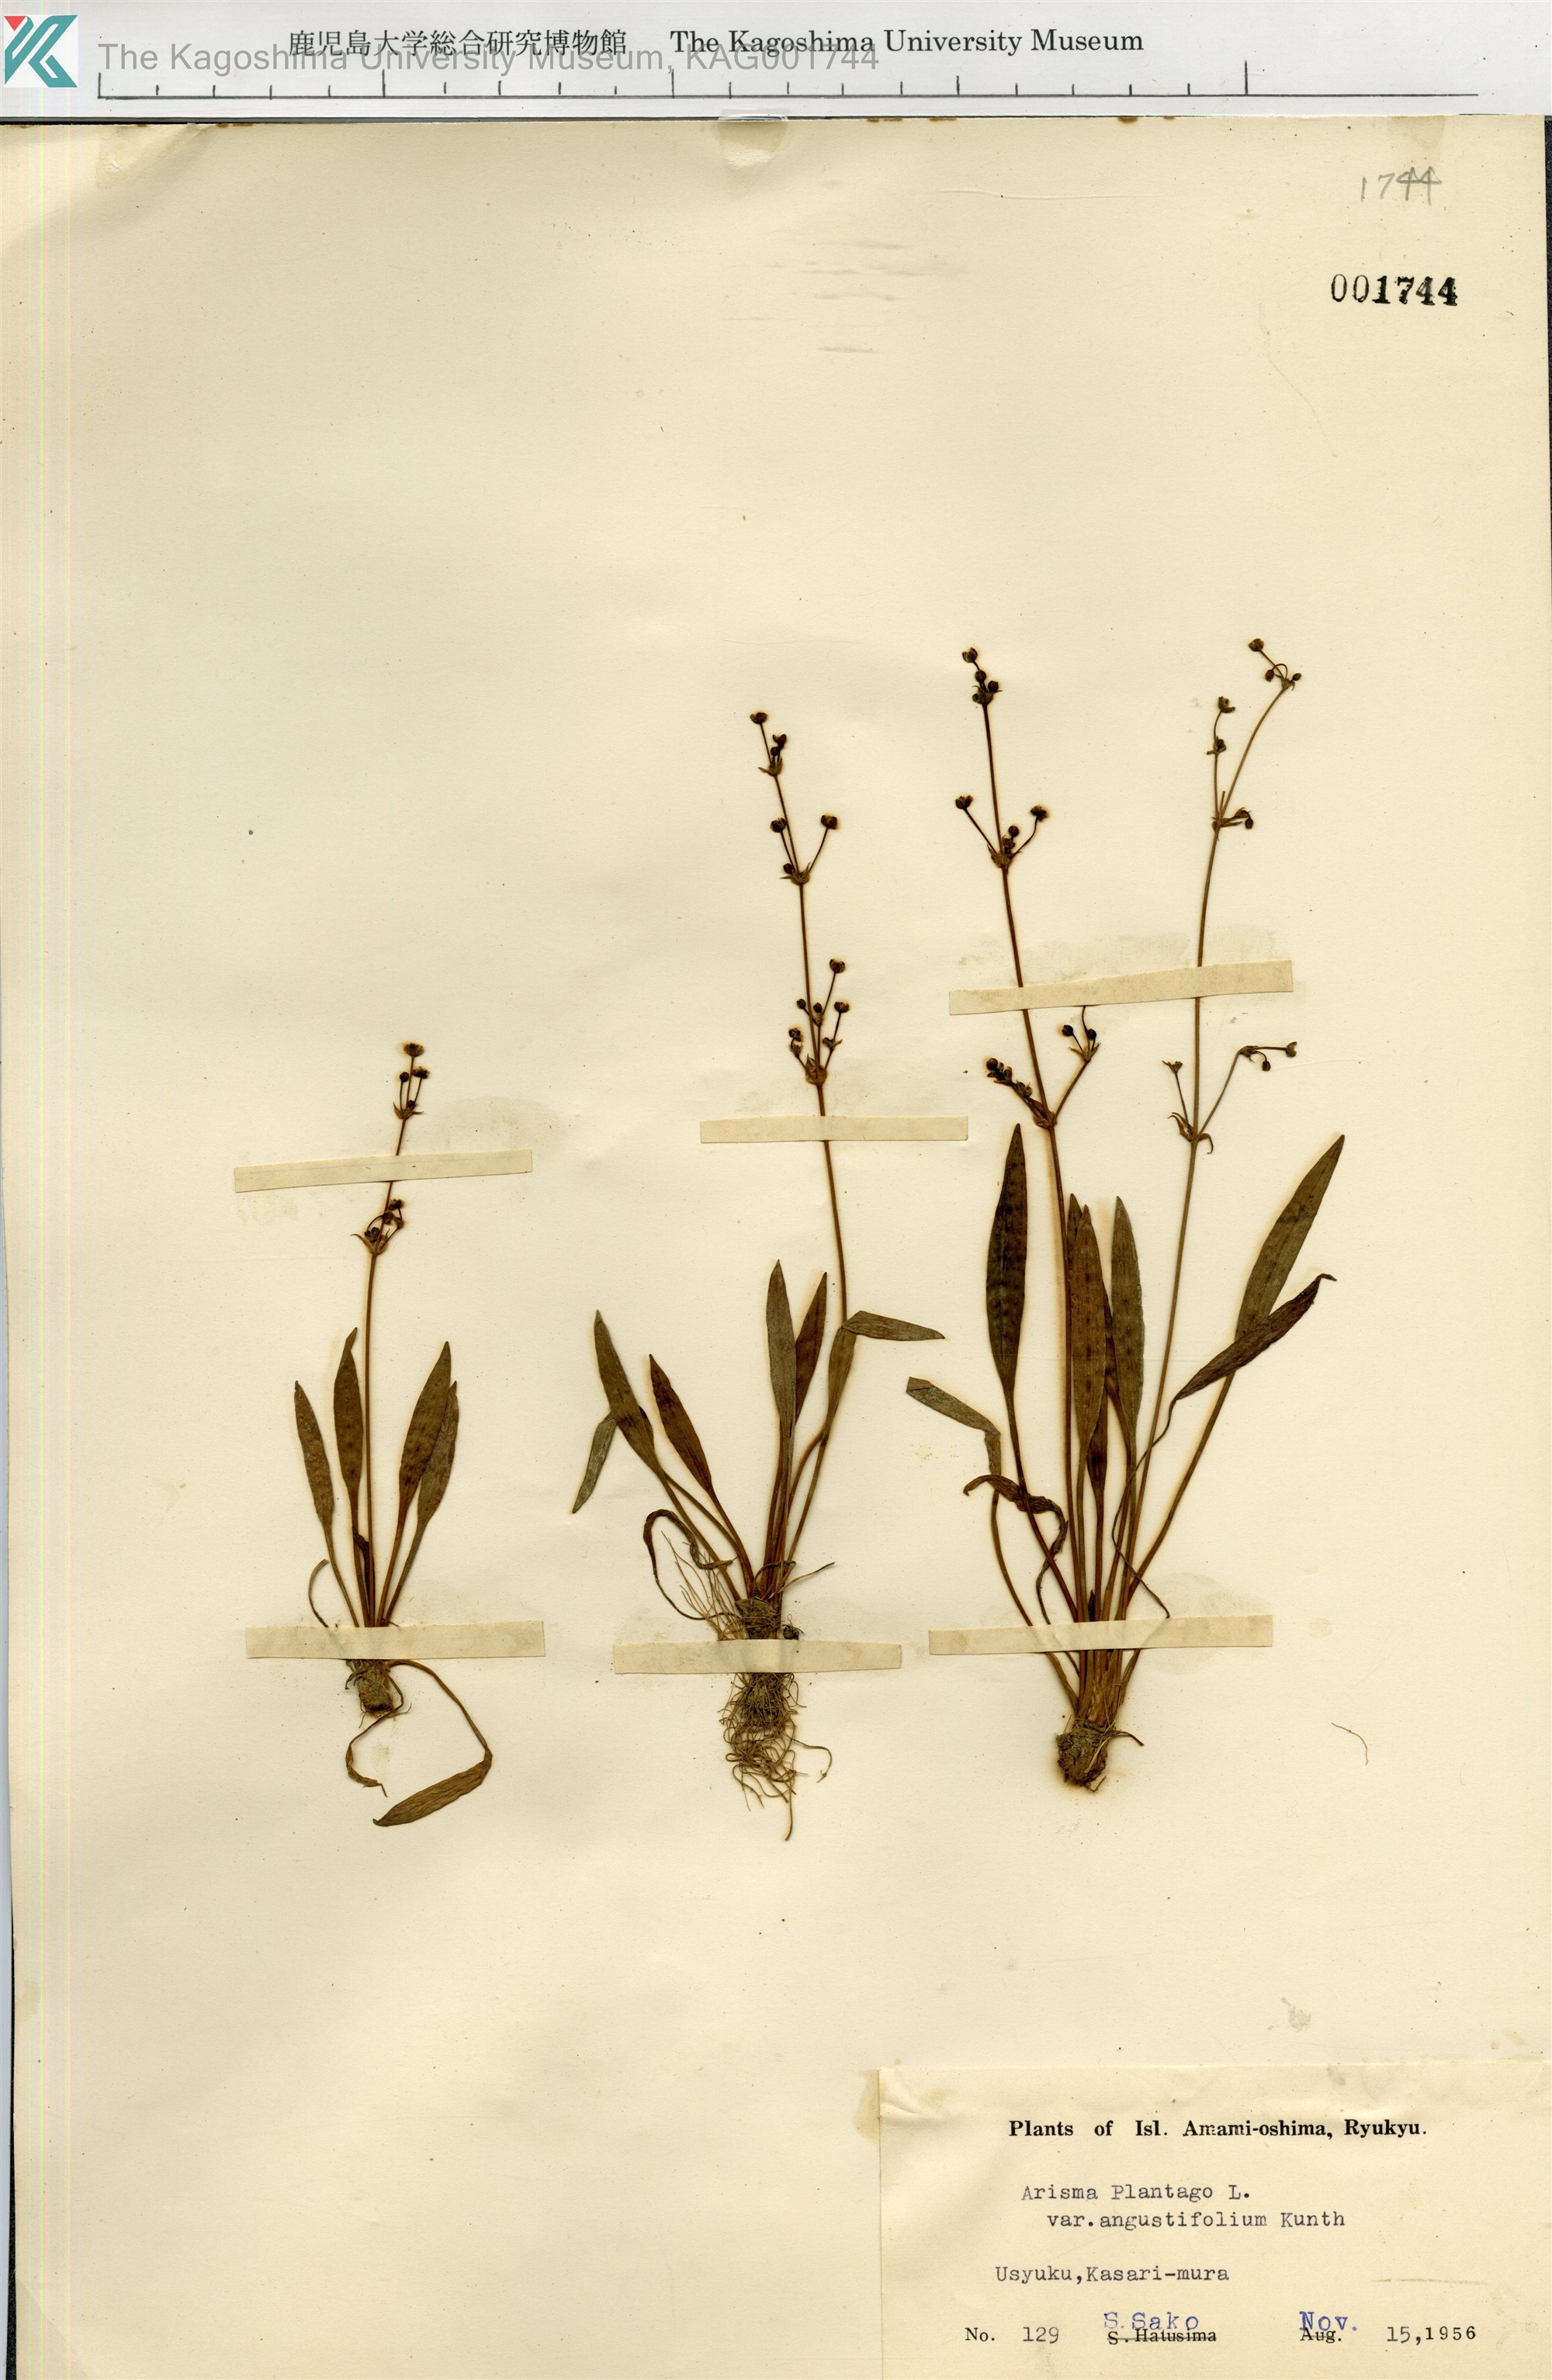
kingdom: Plantae
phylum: Tracheophyta
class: Liliopsida
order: Alismatales
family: Alismataceae
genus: Alisma
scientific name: Alisma canaliculatum
